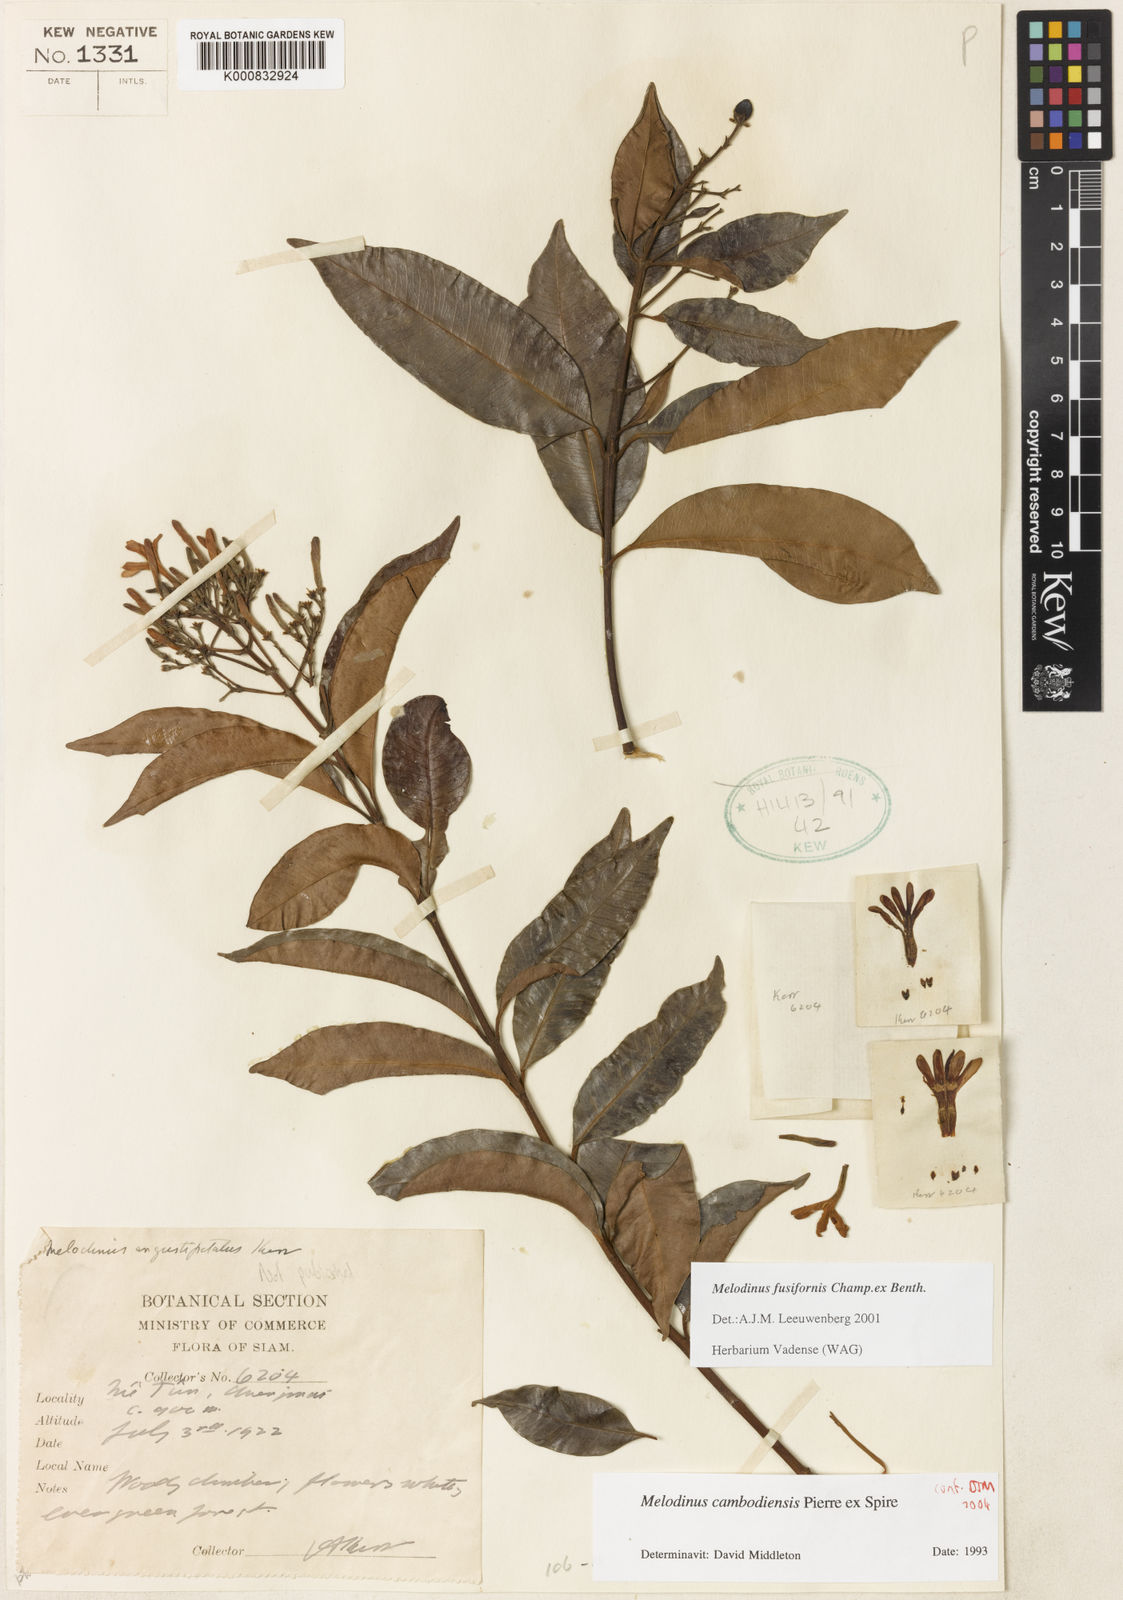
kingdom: Plantae
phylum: Tracheophyta
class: Magnoliopsida
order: Gentianales
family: Apocynaceae
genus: Melodinus
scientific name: Melodinus cambodiensis
